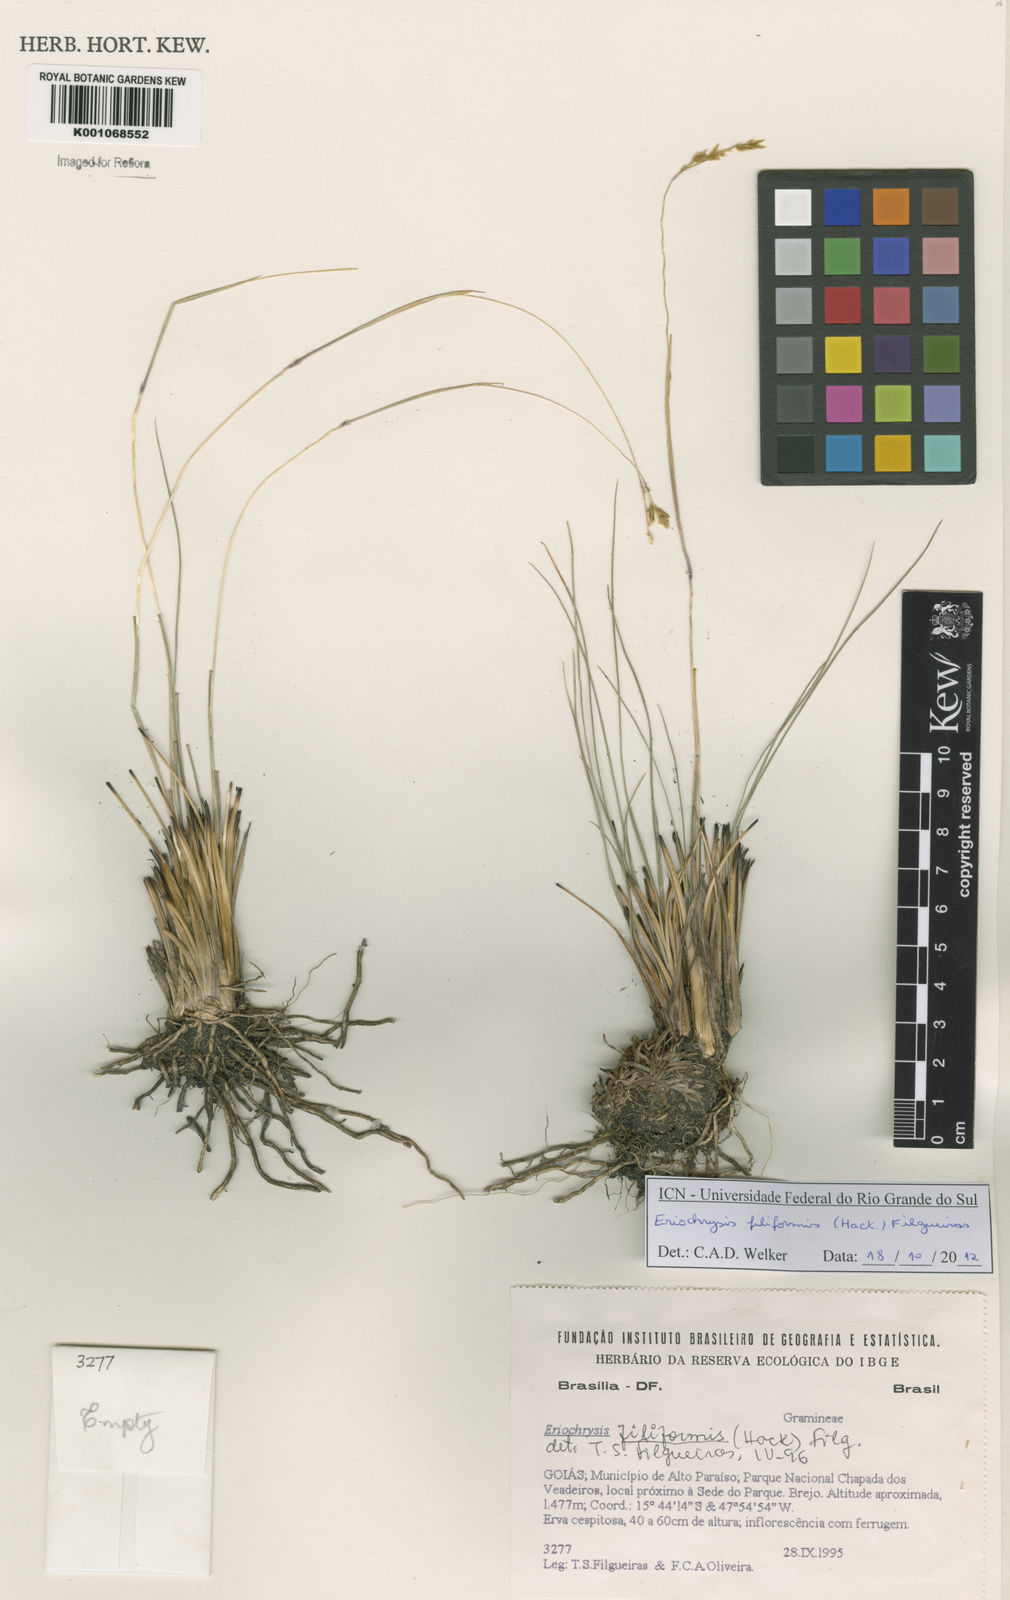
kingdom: Plantae
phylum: Tracheophyta
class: Liliopsida
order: Poales
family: Poaceae
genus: Eriochrysis
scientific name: Eriochrysis filiformis
